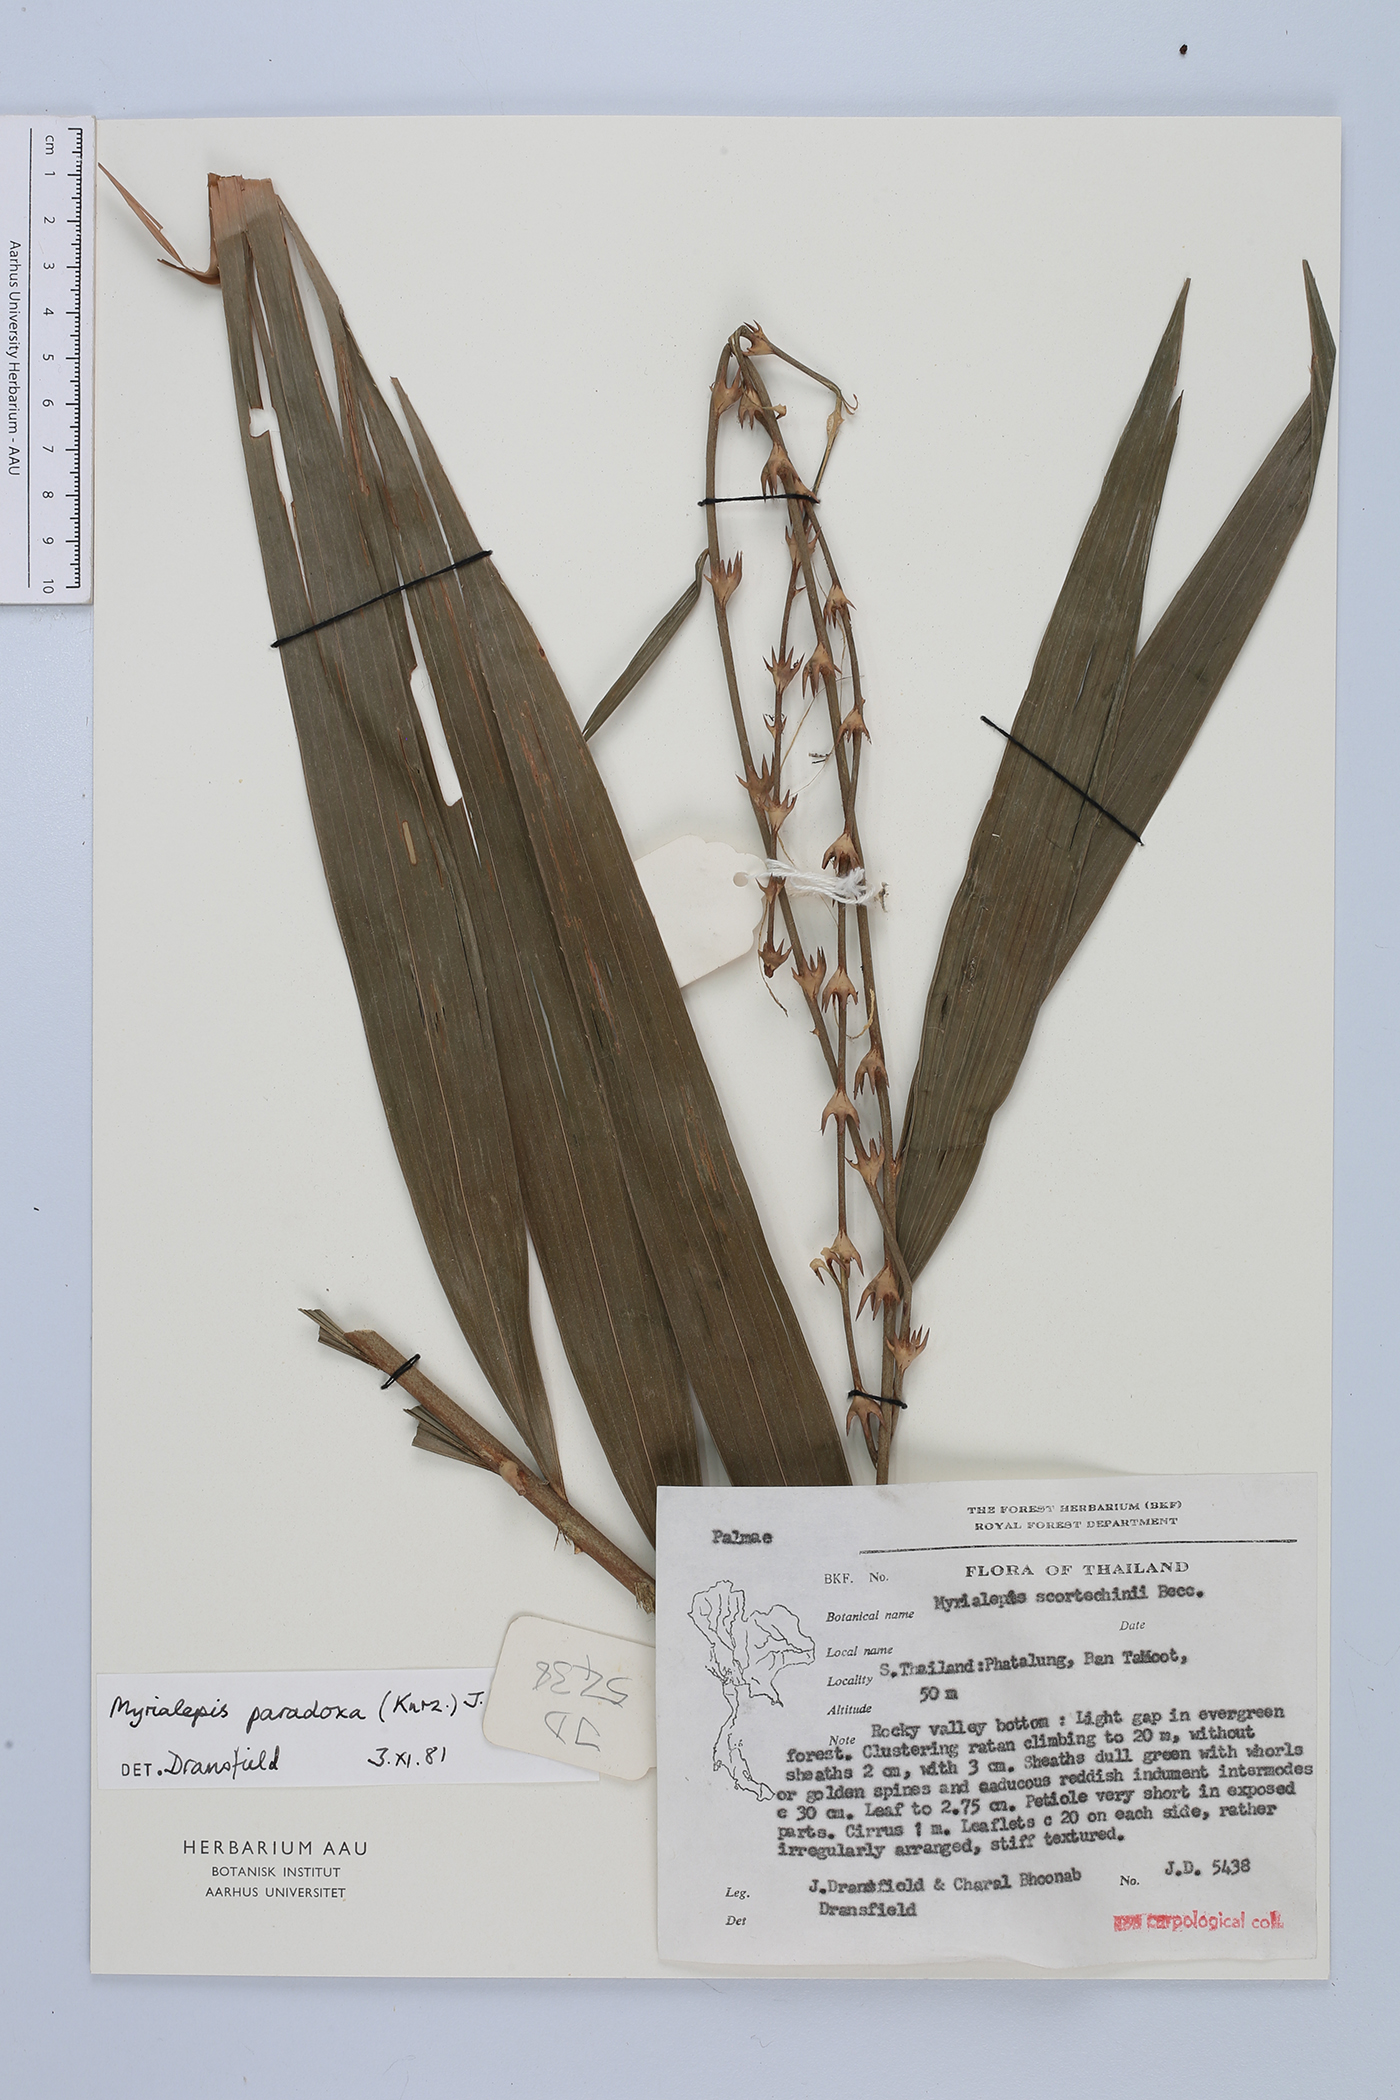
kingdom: Plantae
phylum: Tracheophyta
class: Liliopsida
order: Arecales
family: Arecaceae
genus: Myrialepis
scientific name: Myrialepis paradoxa
